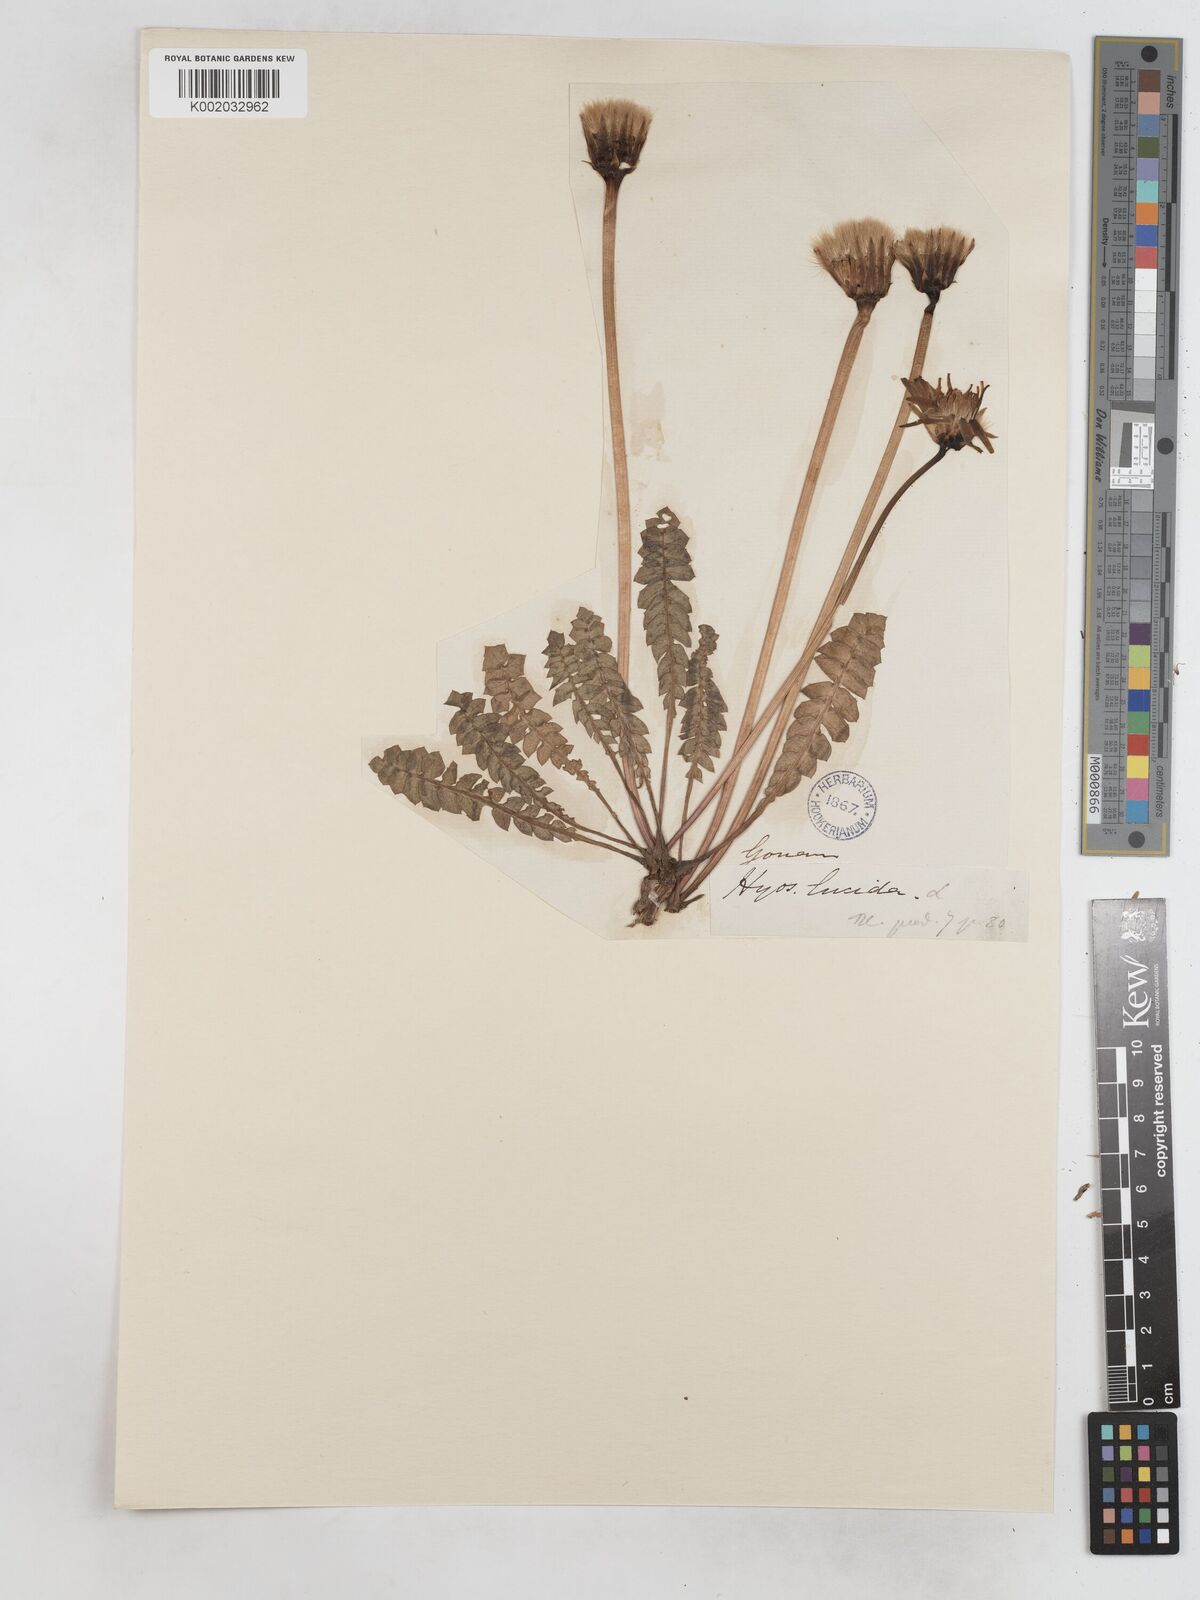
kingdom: Plantae
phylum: Tracheophyta
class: Magnoliopsida
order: Asterales
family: Asteraceae
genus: Hyoseris
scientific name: Hyoseris lucida
